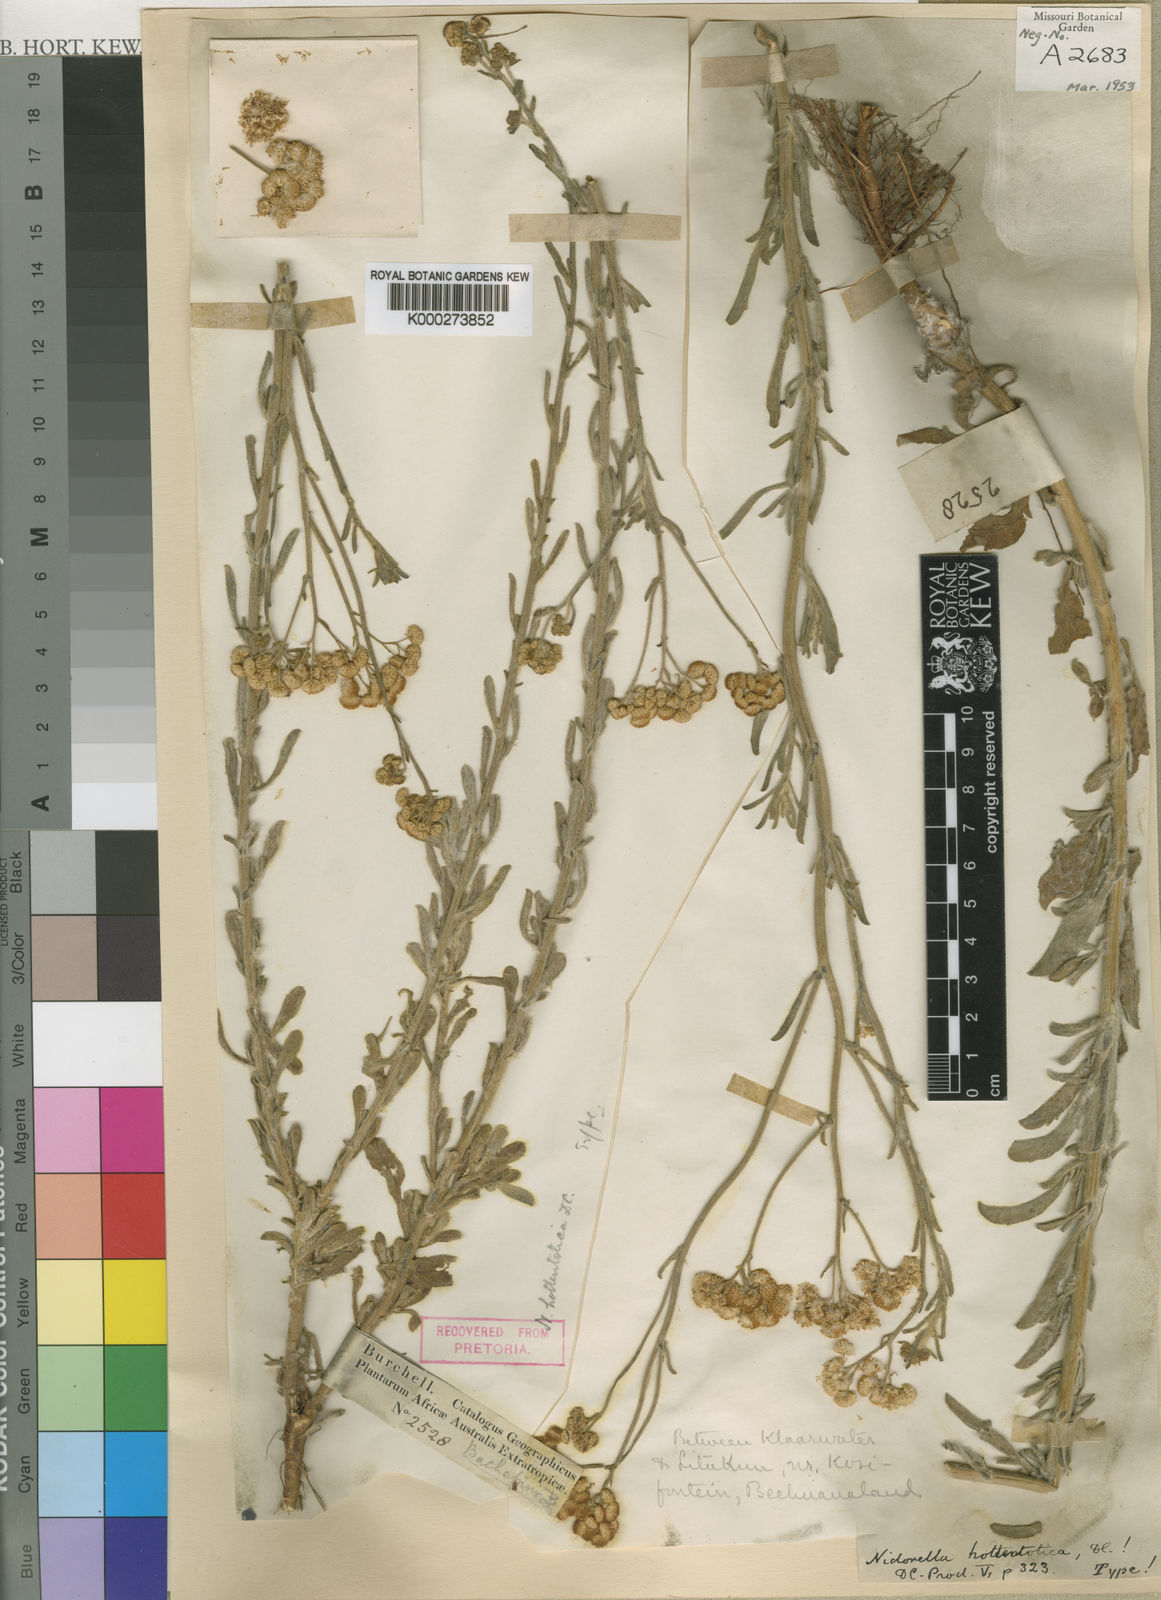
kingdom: Plantae
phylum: Tracheophyta
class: Magnoliopsida
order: Asterales
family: Asteraceae
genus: Nidorella
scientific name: Nidorella hottentotica
